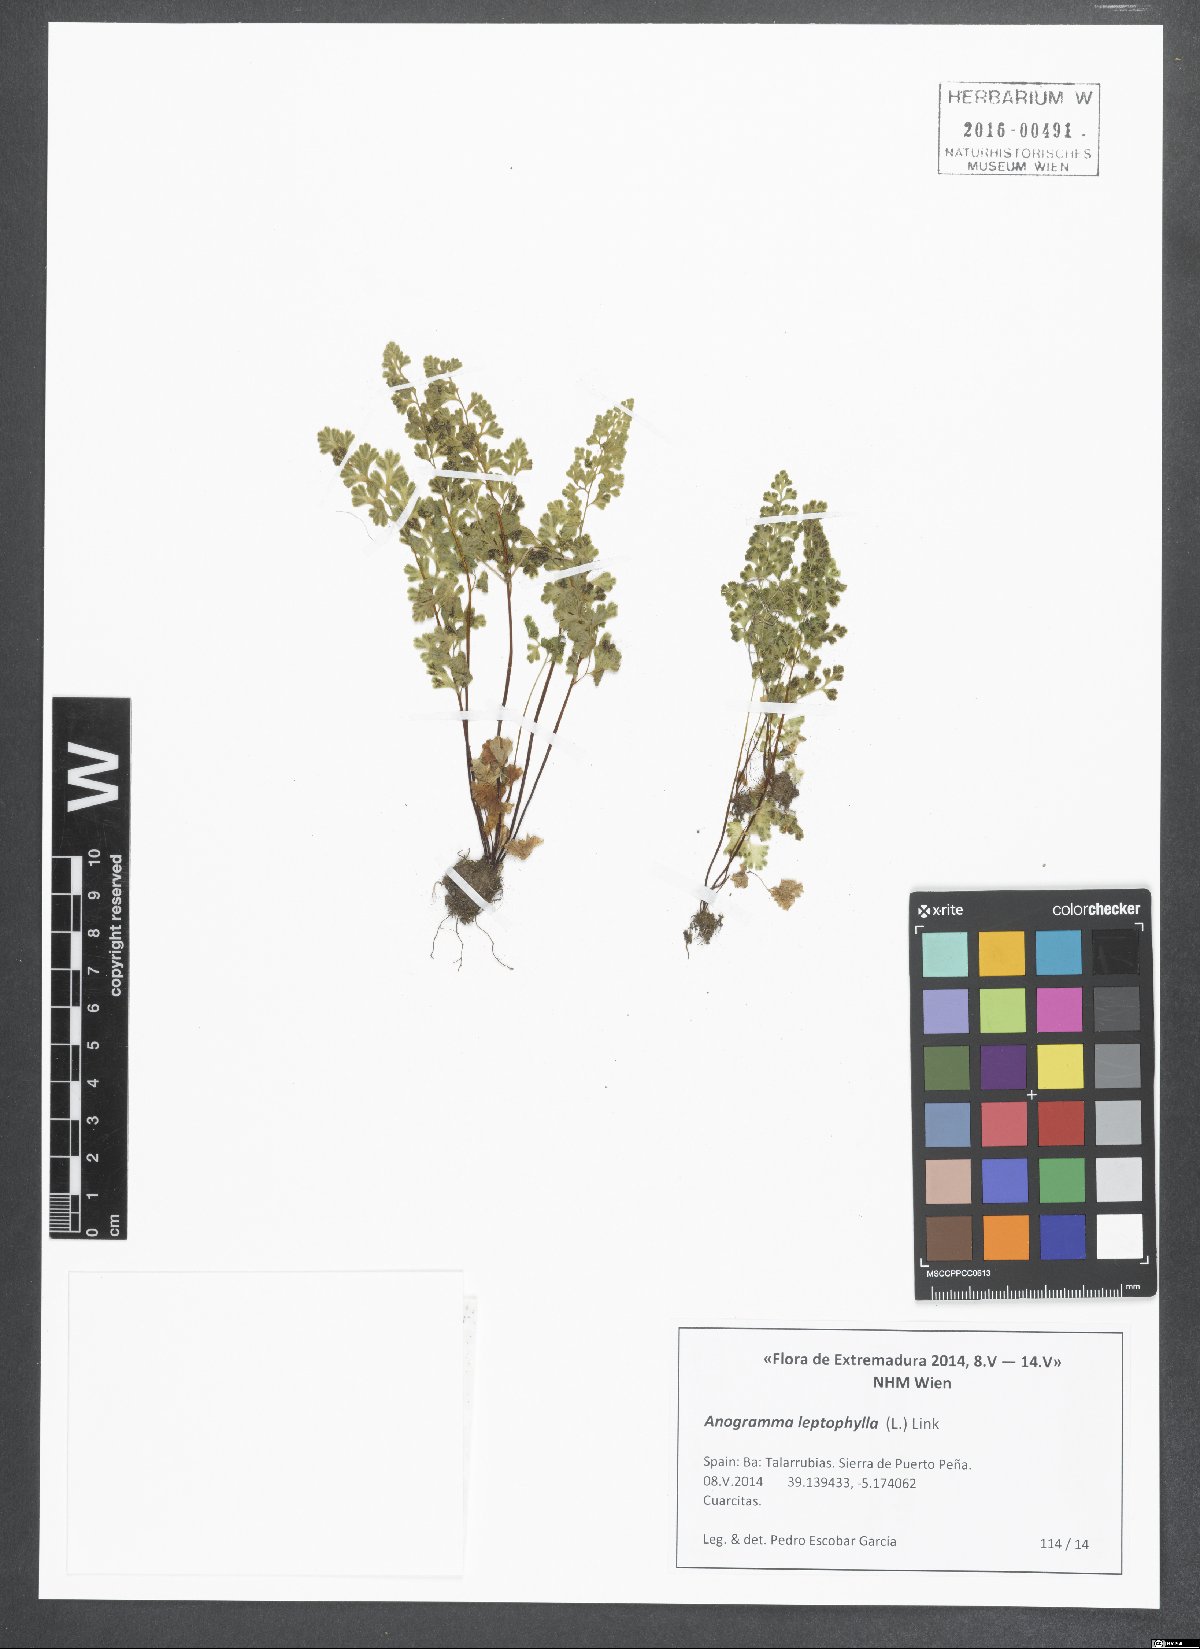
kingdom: Plantae
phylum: Tracheophyta
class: Polypodiopsida
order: Polypodiales
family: Pteridaceae
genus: Anogramma
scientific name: Anogramma leptophylla
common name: Jersey fern
